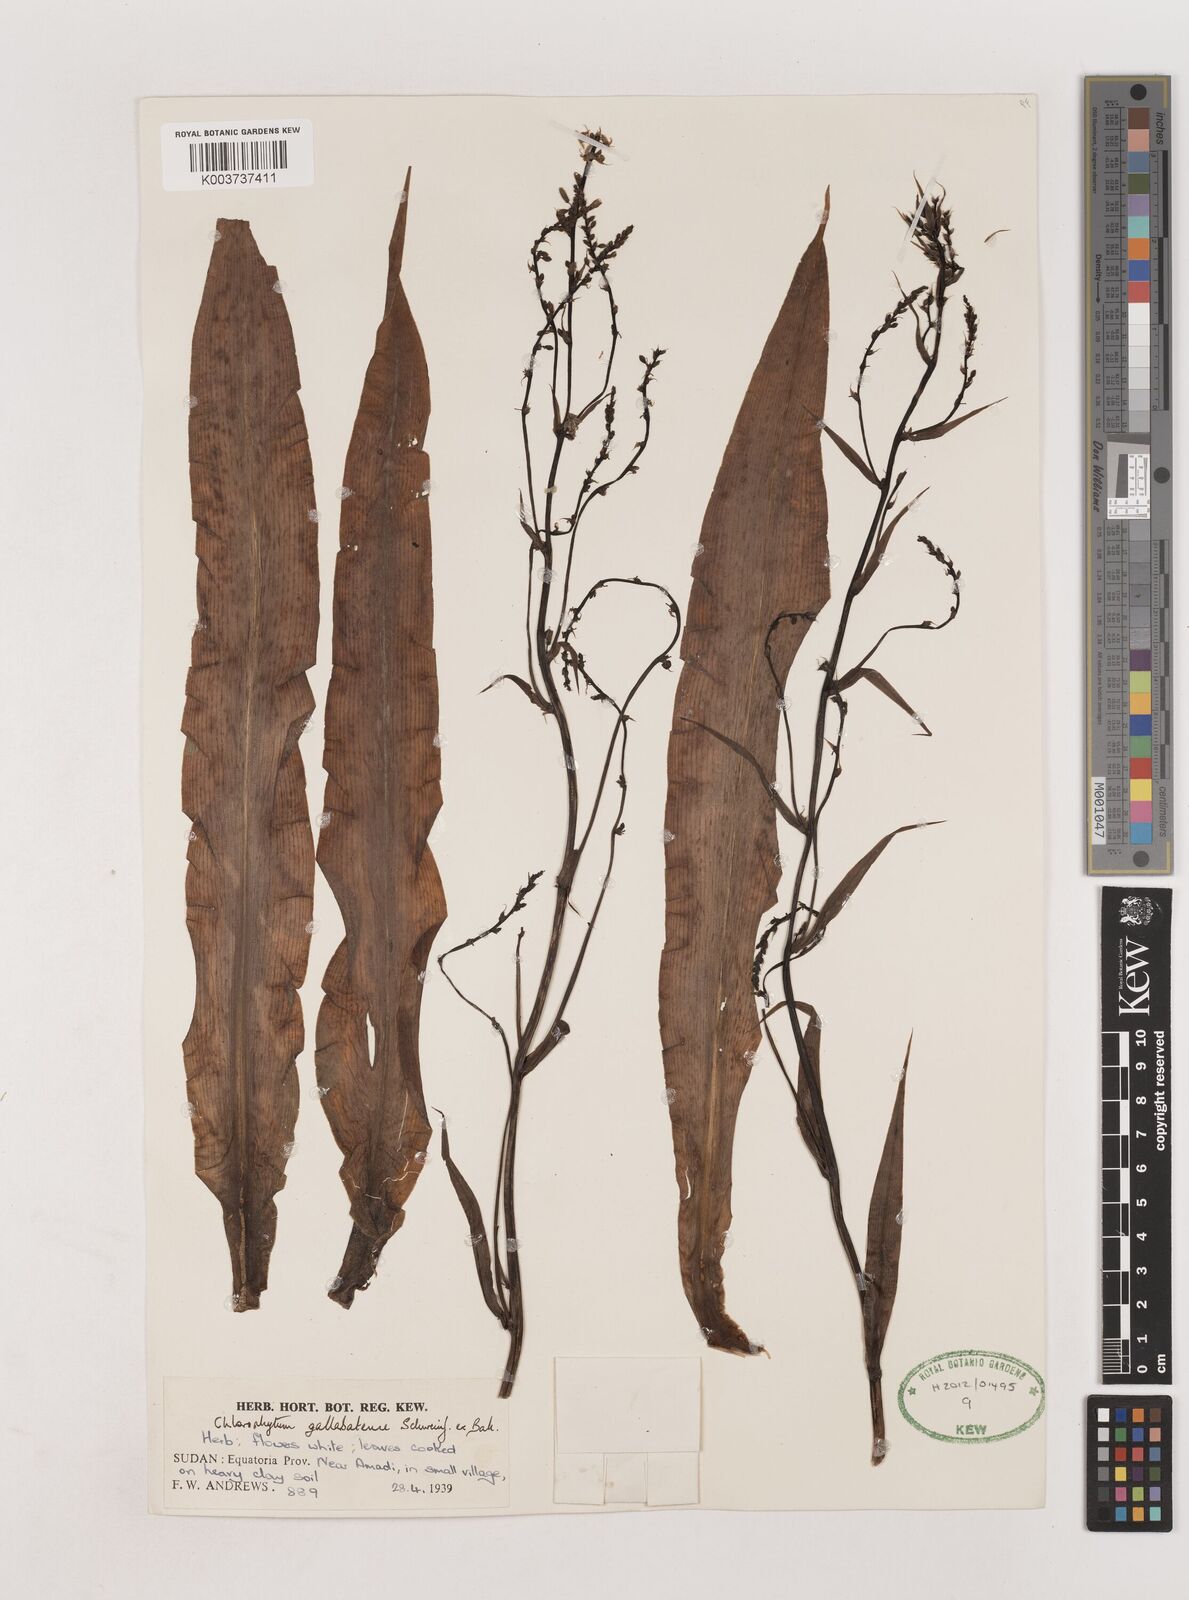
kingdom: Plantae
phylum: Tracheophyta
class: Liliopsida
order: Asparagales
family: Asparagaceae
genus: Chlorophytum
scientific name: Chlorophytum gallabatense
